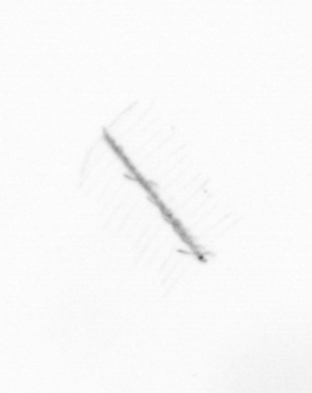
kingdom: Chromista
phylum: Ochrophyta
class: Bacillariophyceae
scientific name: Bacillariophyceae
